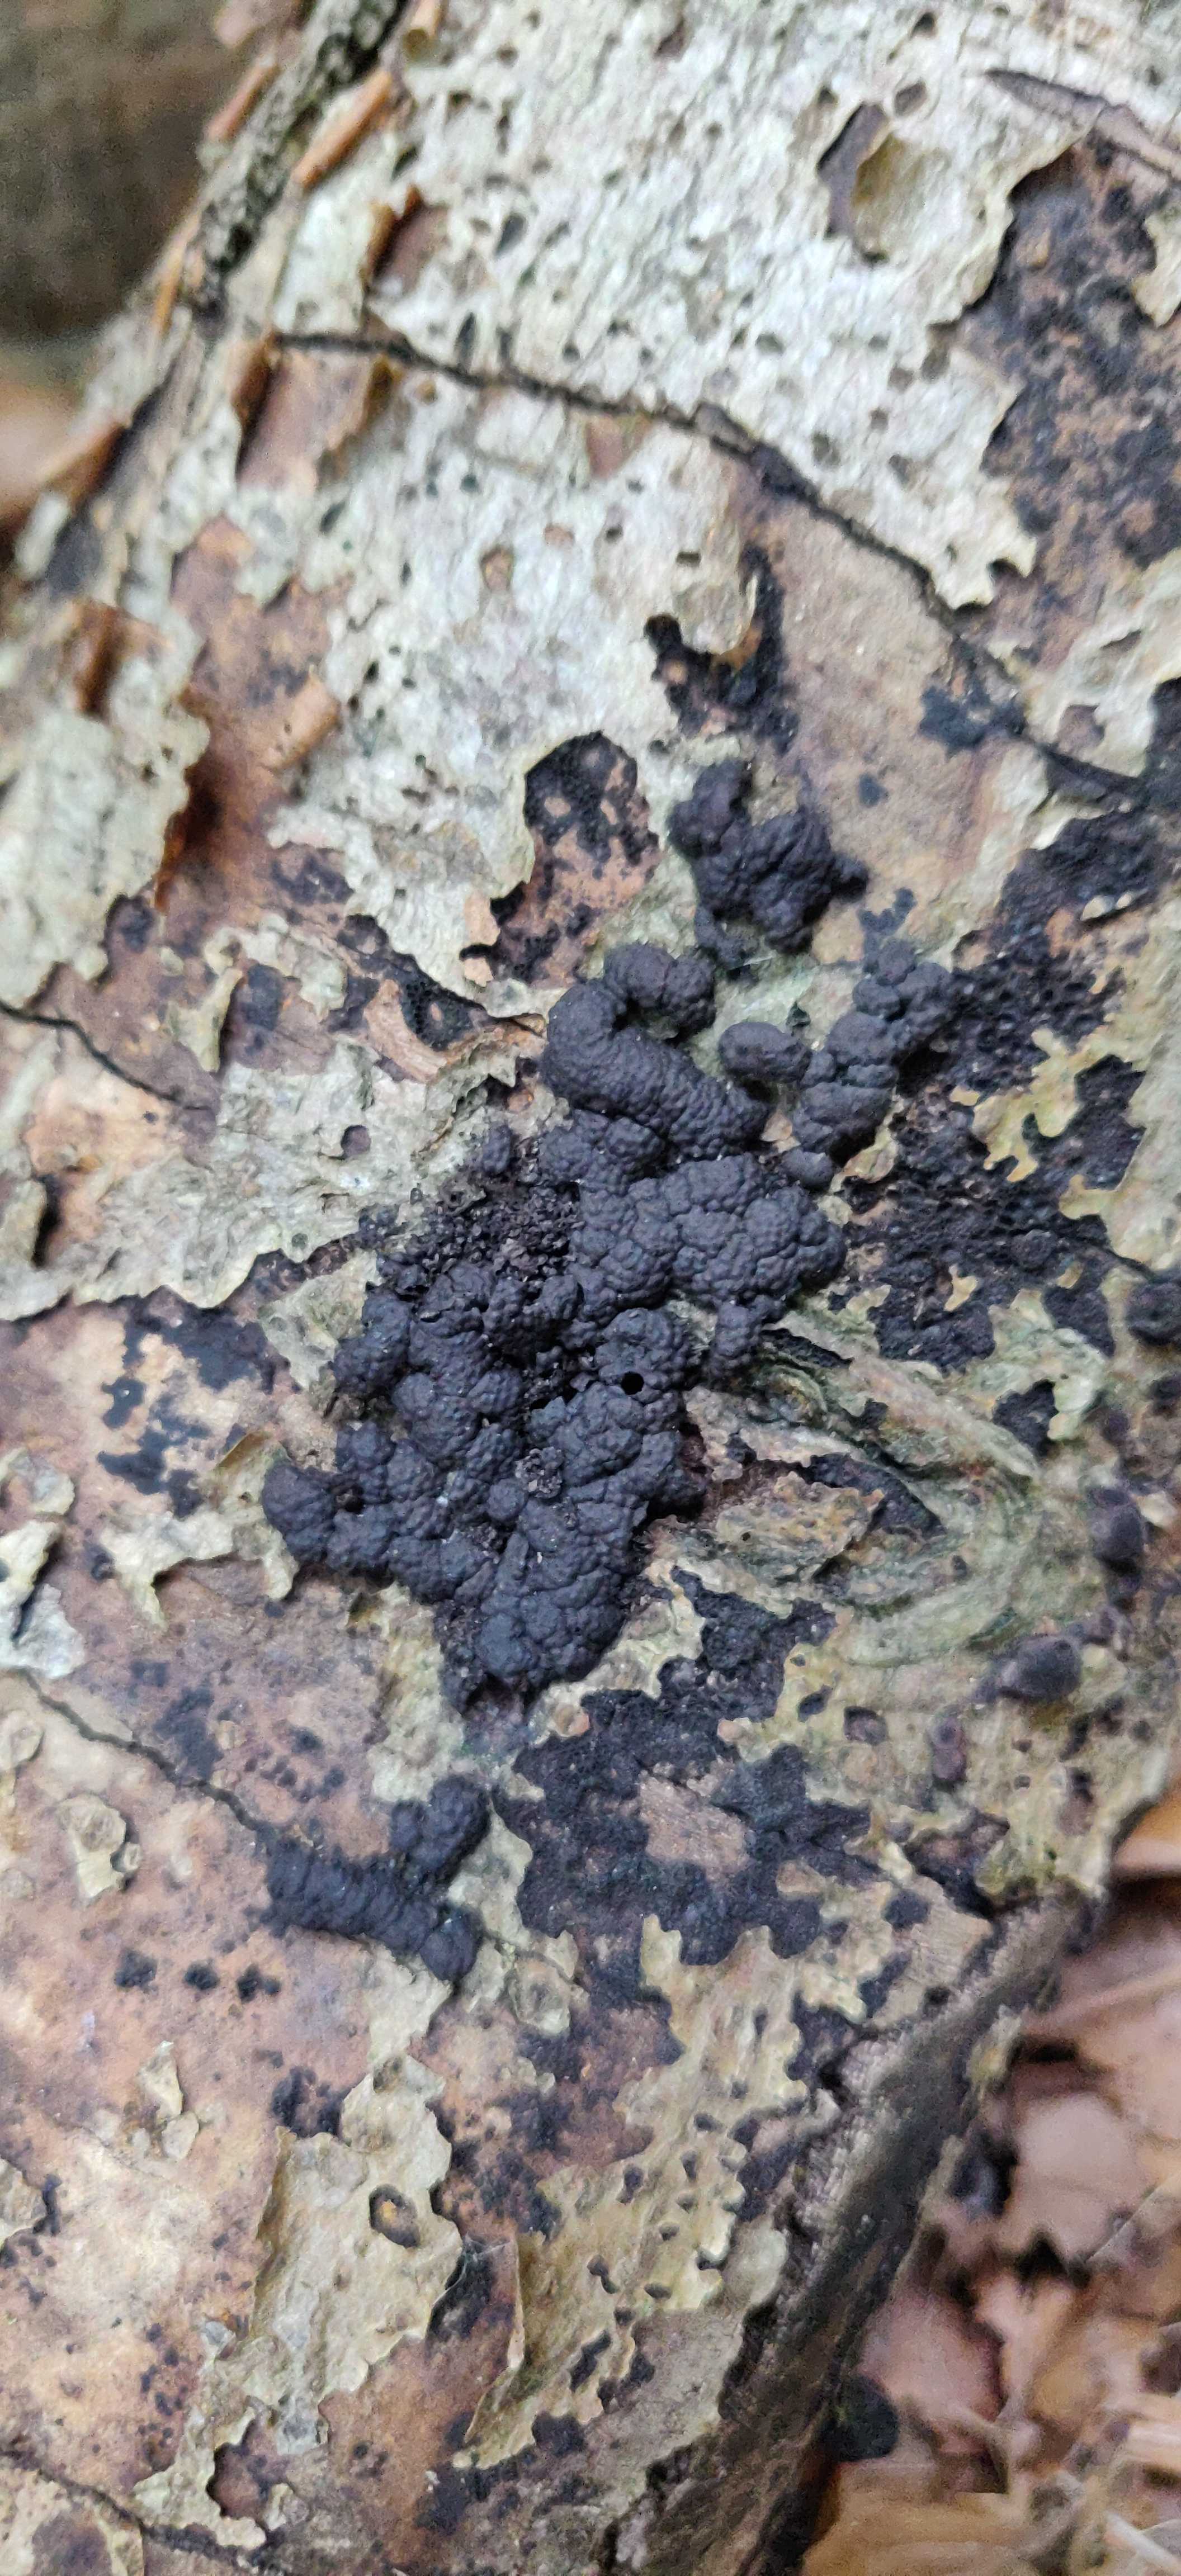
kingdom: Fungi
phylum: Ascomycota
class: Sordariomycetes
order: Xylariales
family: Hypoxylaceae
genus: Jackrogersella
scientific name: Jackrogersella cohaerens
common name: sammenflydende kulbær
